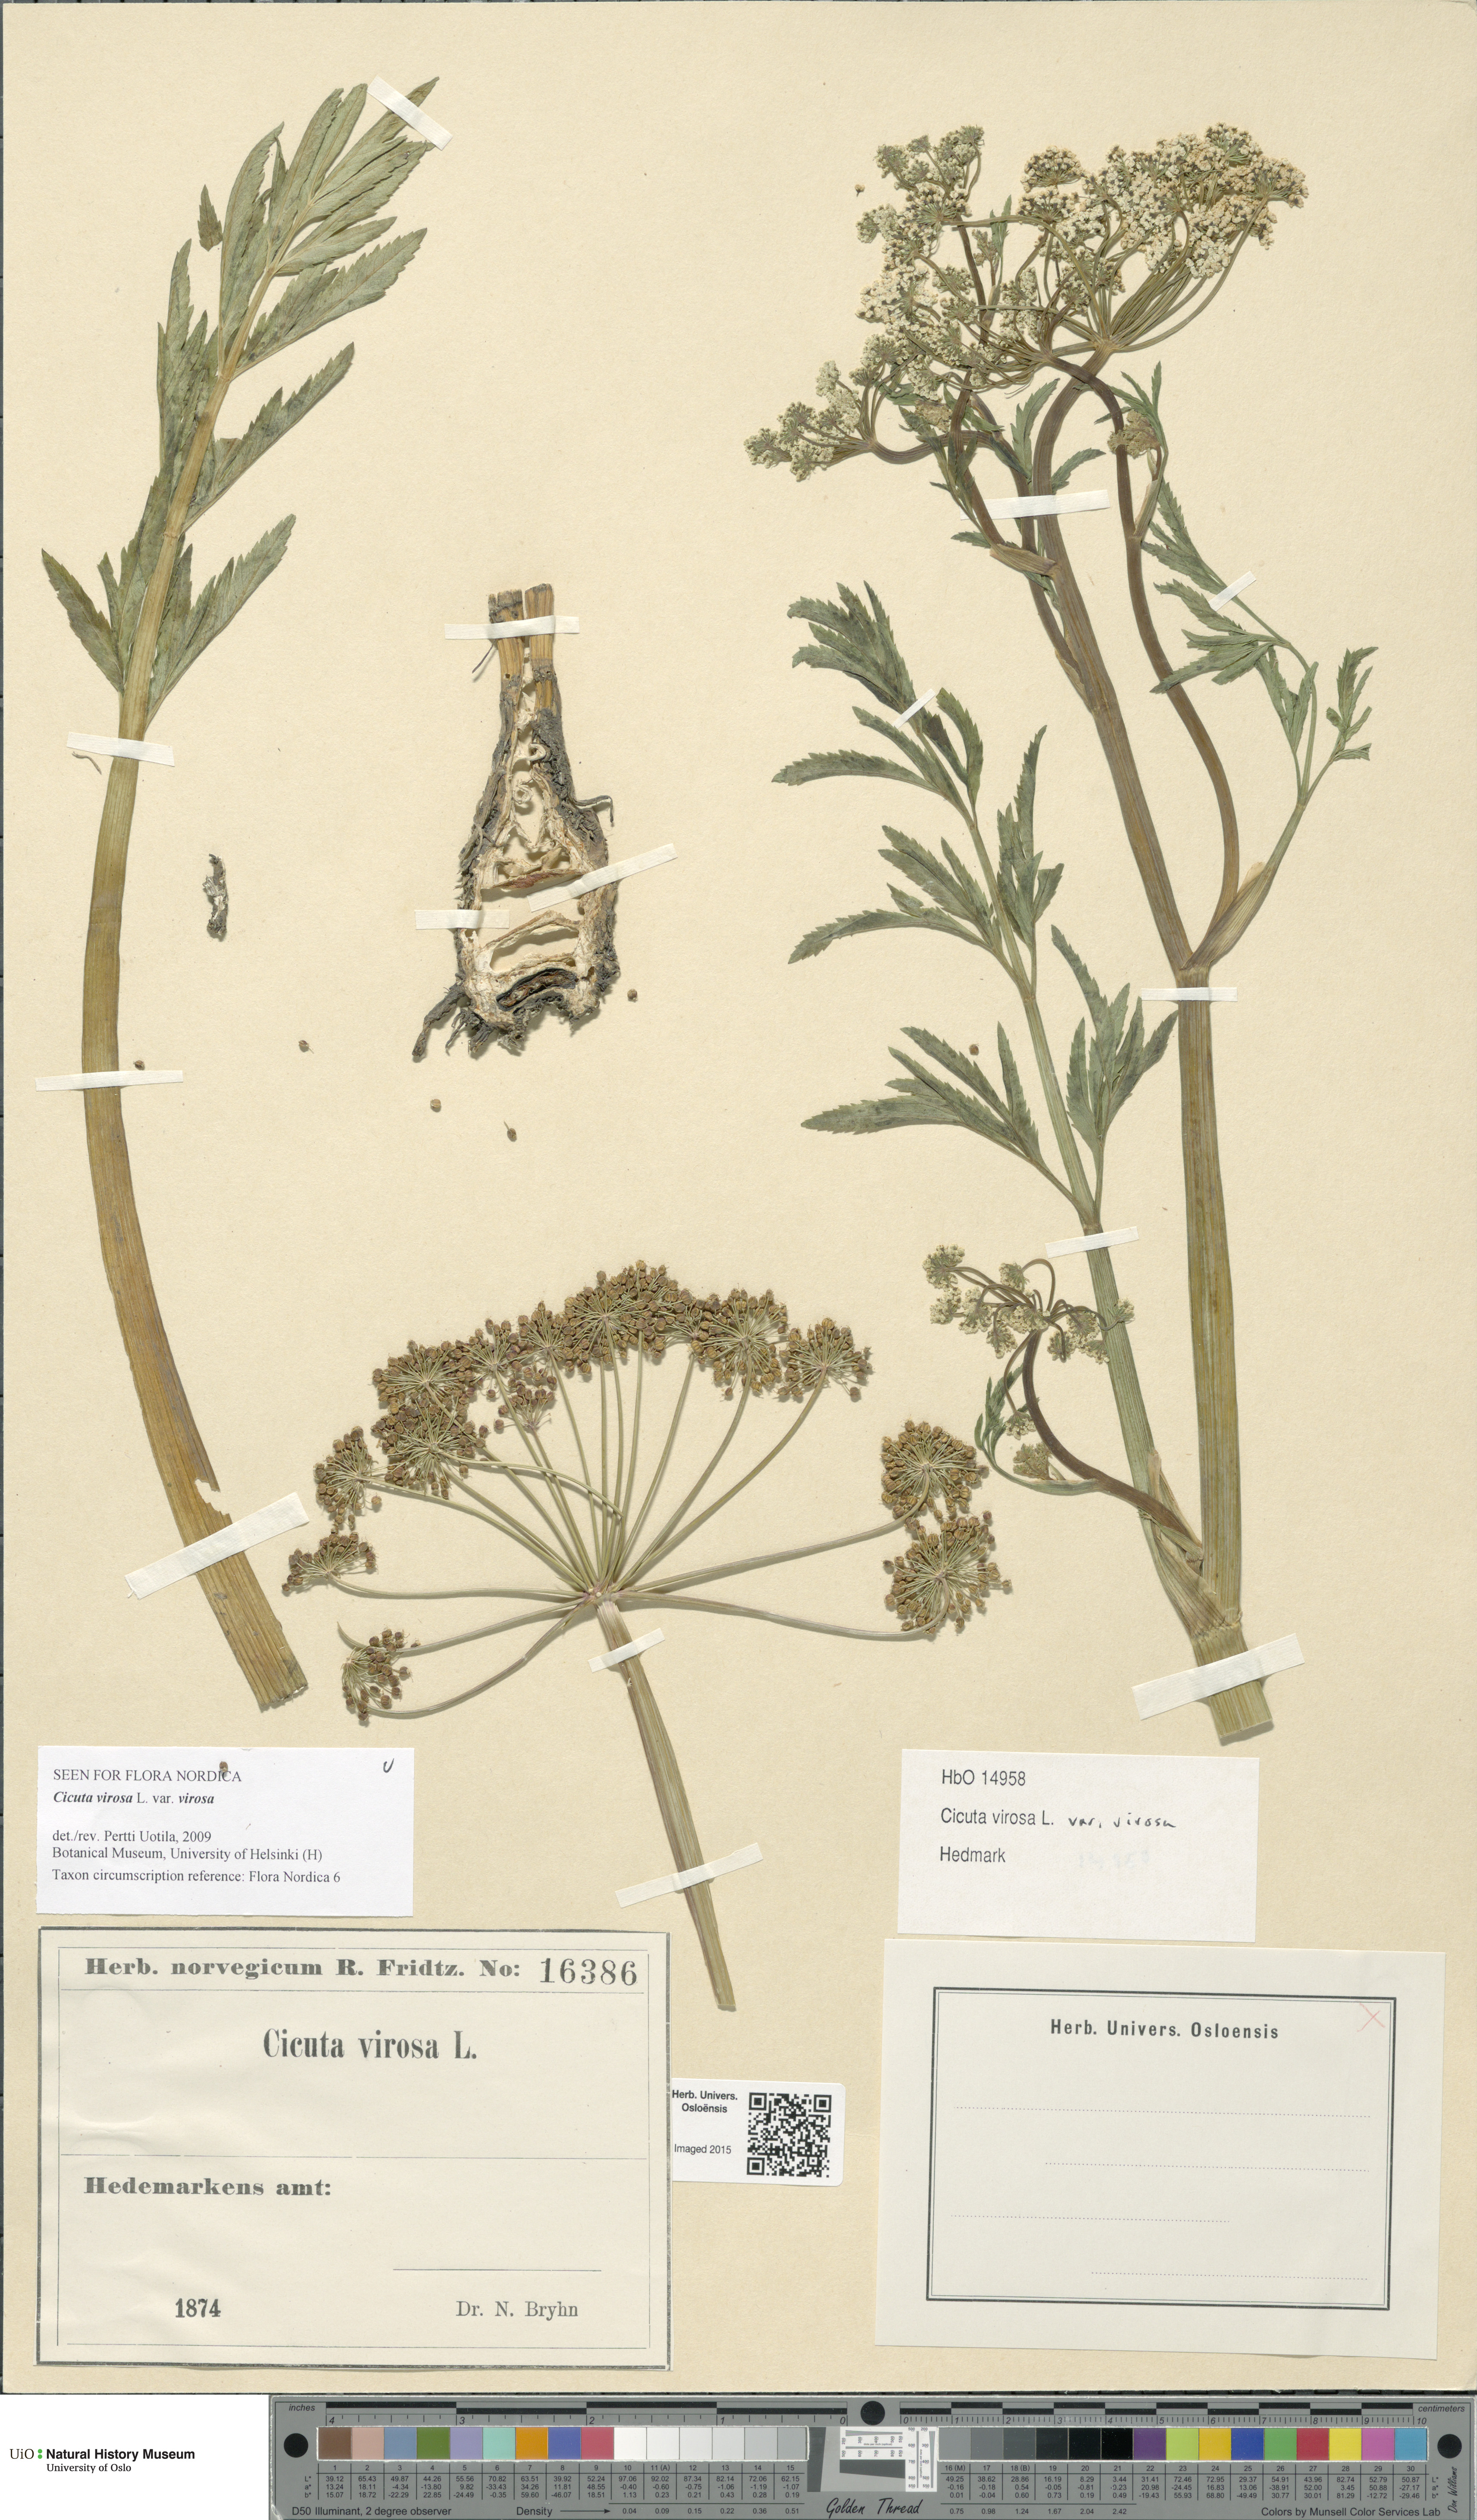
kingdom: Plantae
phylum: Tracheophyta
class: Magnoliopsida
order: Apiales
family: Apiaceae
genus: Cicuta
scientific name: Cicuta virosa
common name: Cowbane
